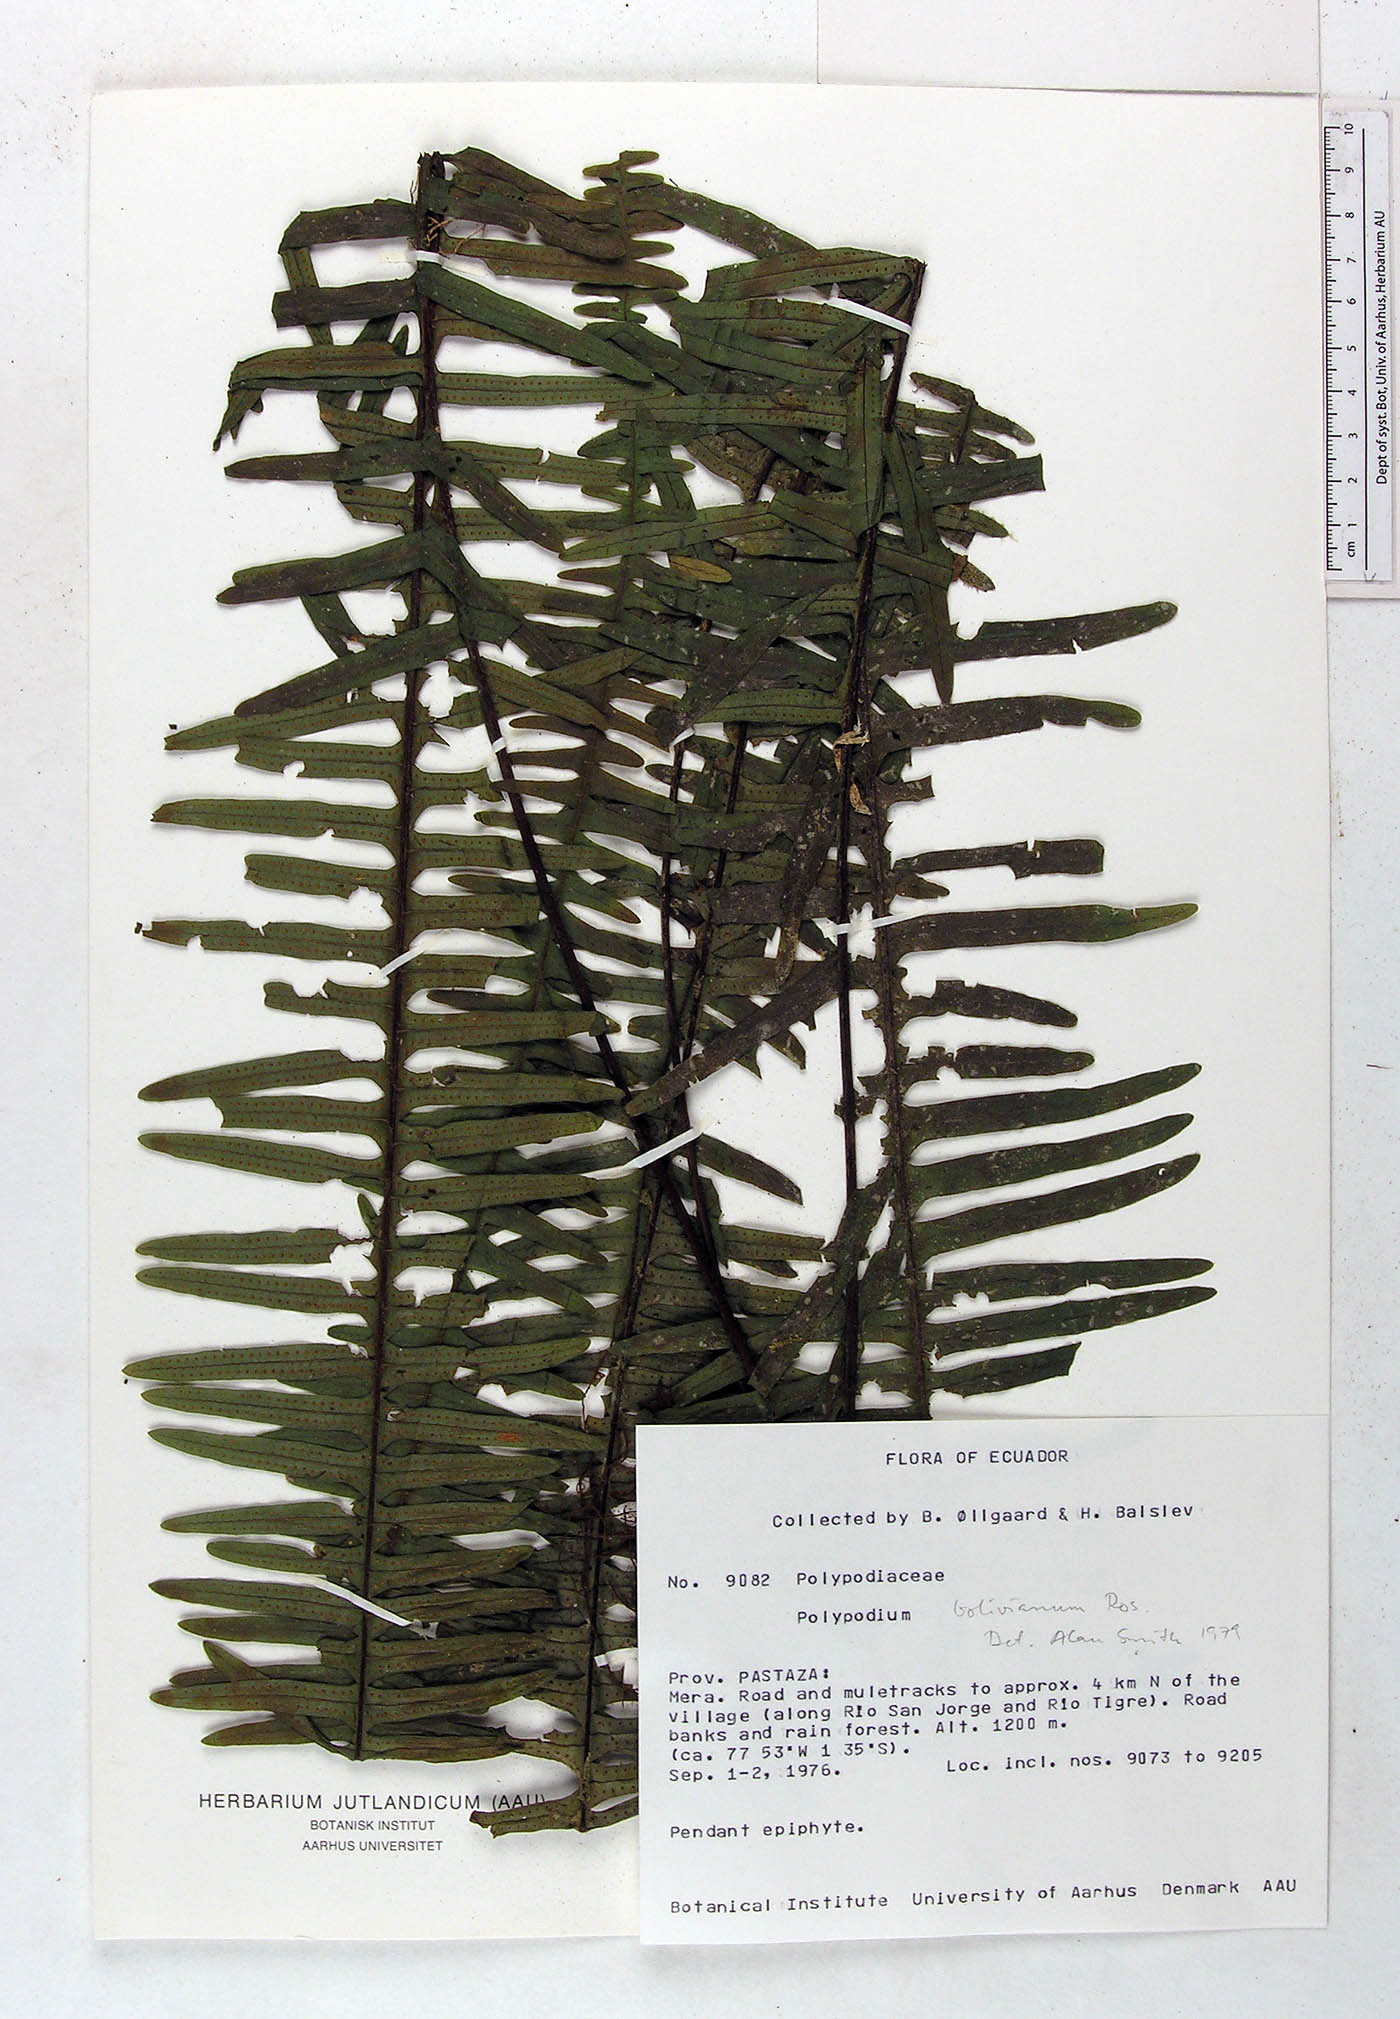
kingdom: Plantae
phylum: Tracheophyta
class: Polypodiopsida
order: Polypodiales
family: Polypodiaceae
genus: Pecluma
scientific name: Pecluma divaricata
